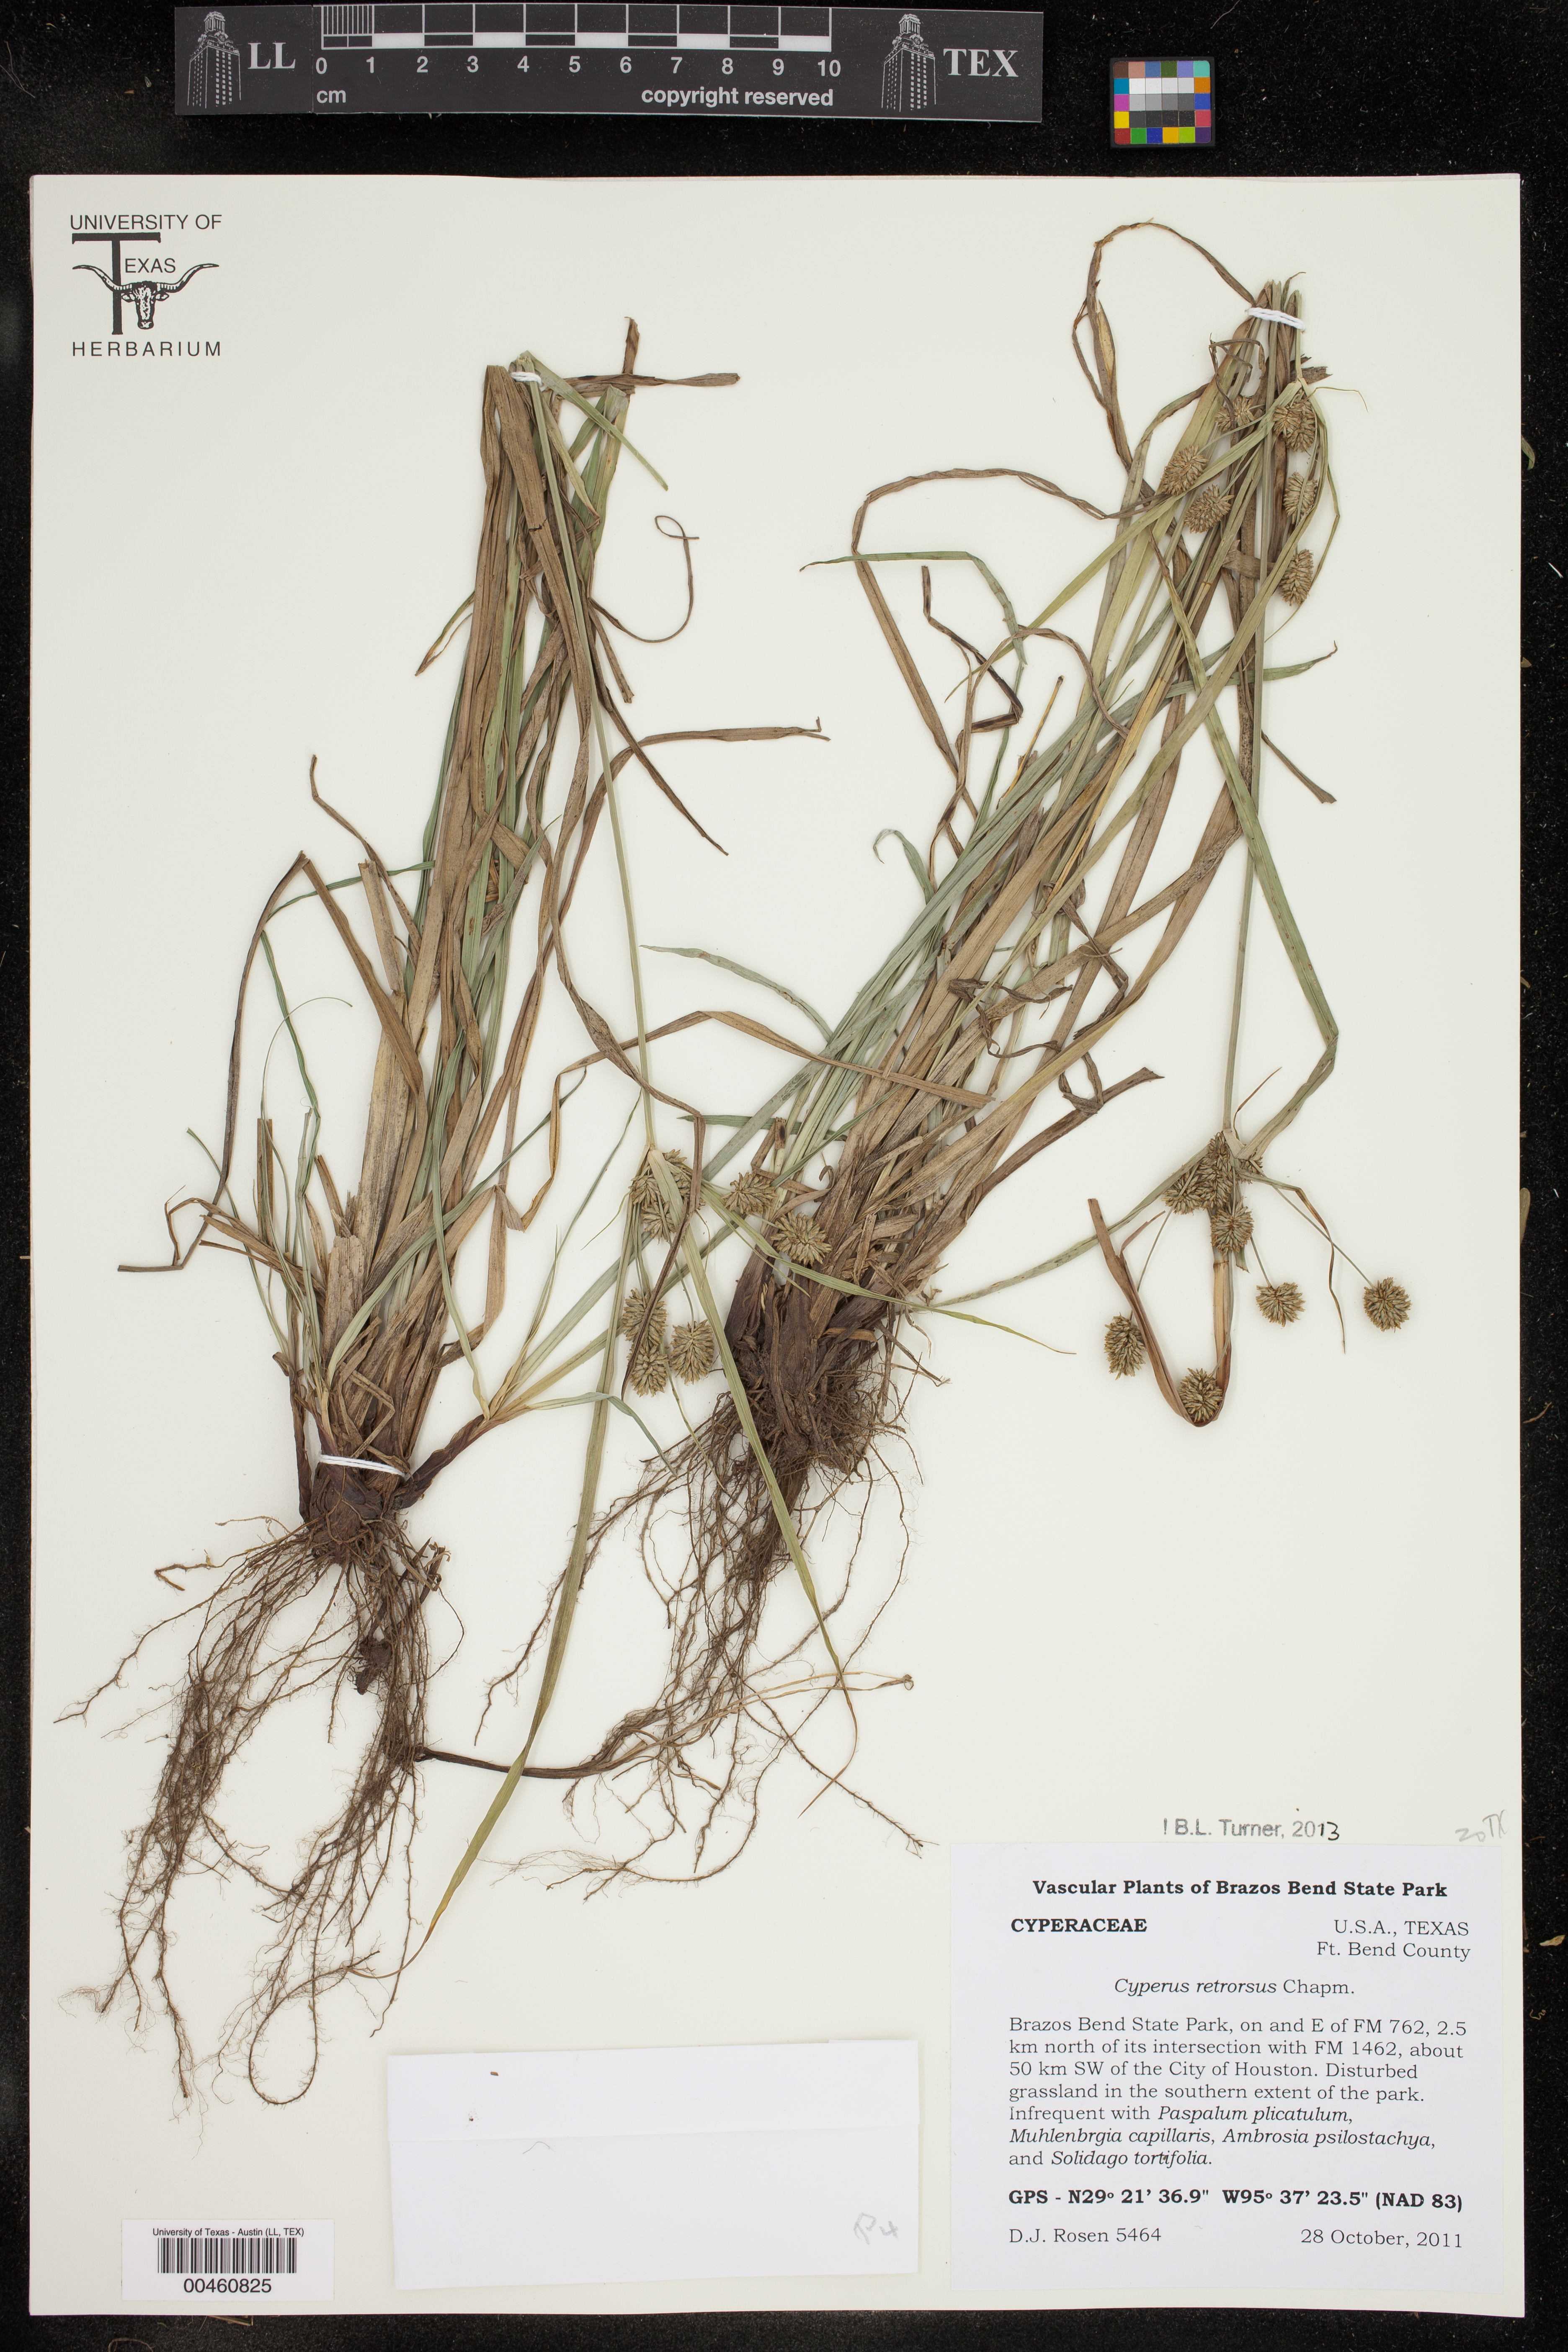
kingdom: Plantae
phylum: Tracheophyta
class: Liliopsida
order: Poales
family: Cyperaceae
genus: Cyperus
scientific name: Cyperus retrorsus
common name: Pinebarren flat sedge
